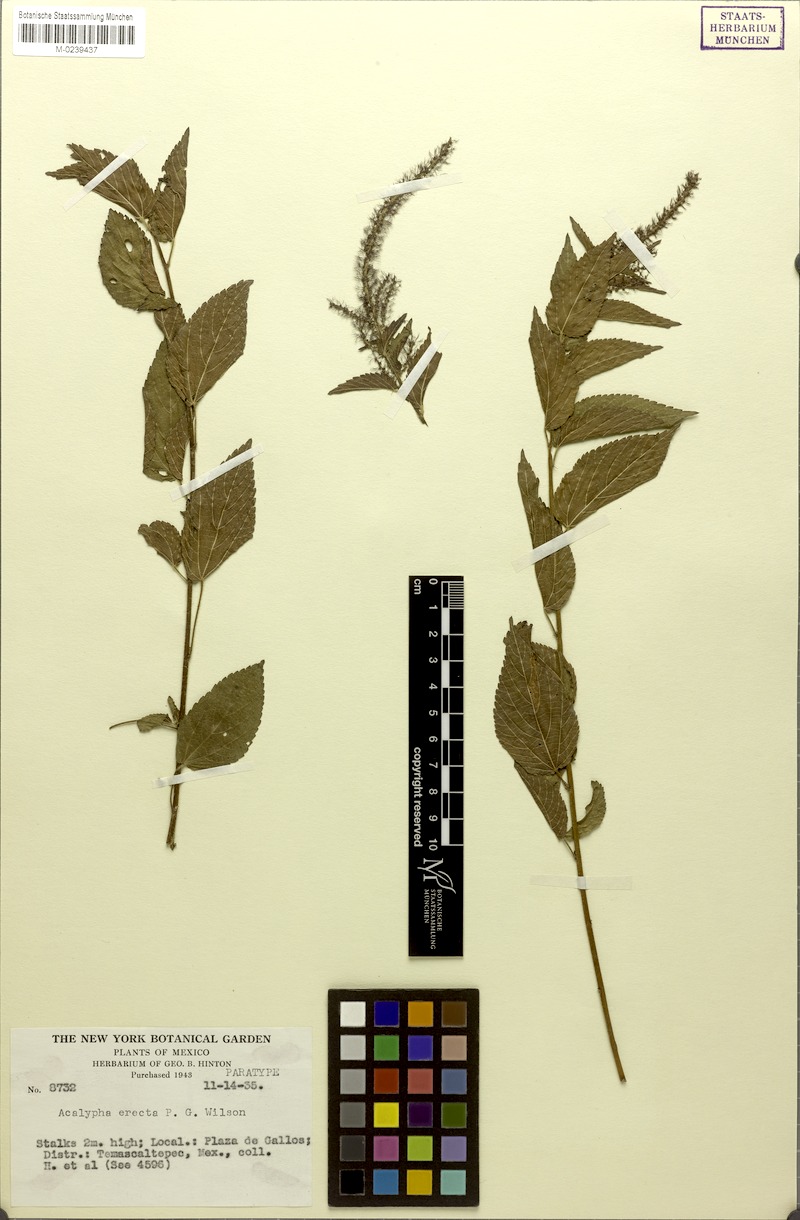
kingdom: Plantae
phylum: Tracheophyta
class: Magnoliopsida
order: Malpighiales
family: Euphorbiaceae
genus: Acalypha
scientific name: Acalypha erecta
